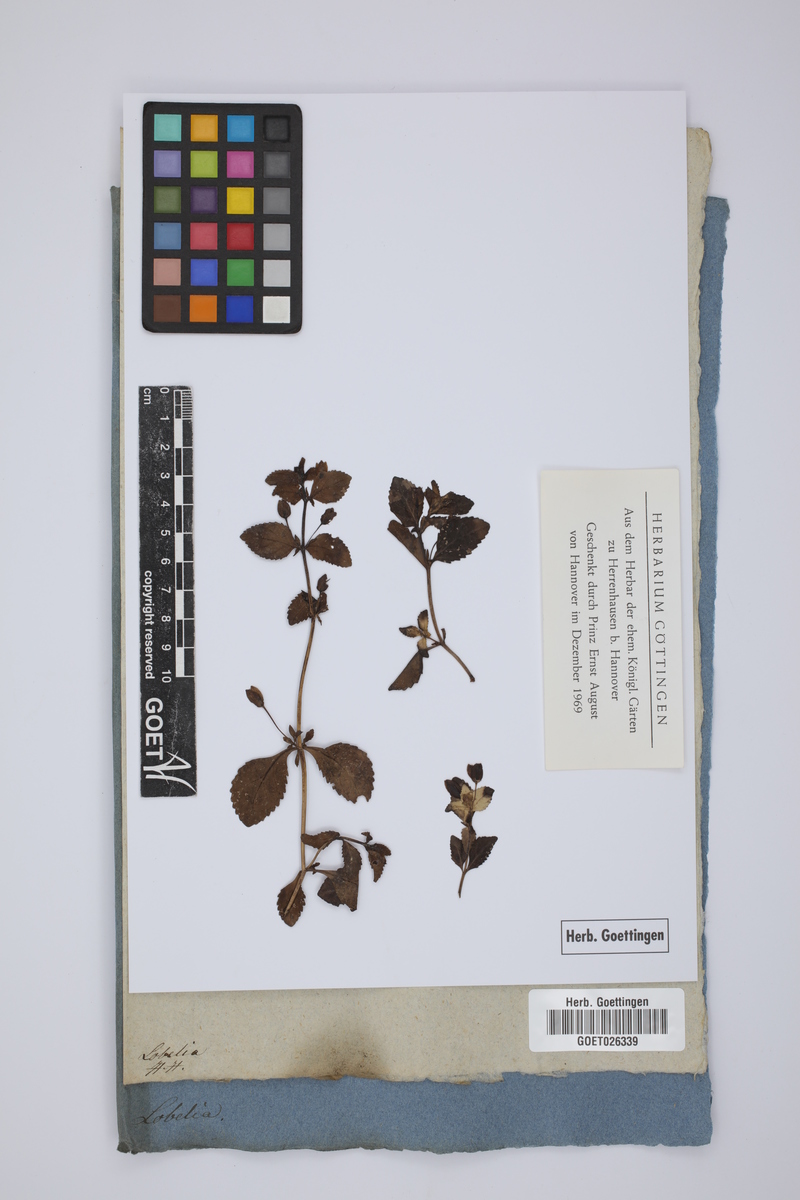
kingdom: Plantae
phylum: Tracheophyta
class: Magnoliopsida
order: Asterales
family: Campanulaceae
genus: Lobelia
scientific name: Lobelia
